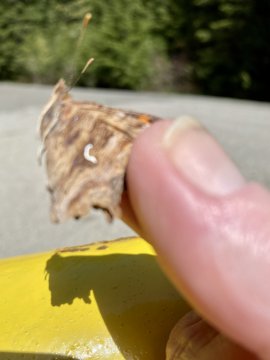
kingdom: Animalia
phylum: Arthropoda
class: Insecta
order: Lepidoptera
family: Nymphalidae
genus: Polygonia
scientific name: Polygonia satyrus
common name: Satyr Comma
